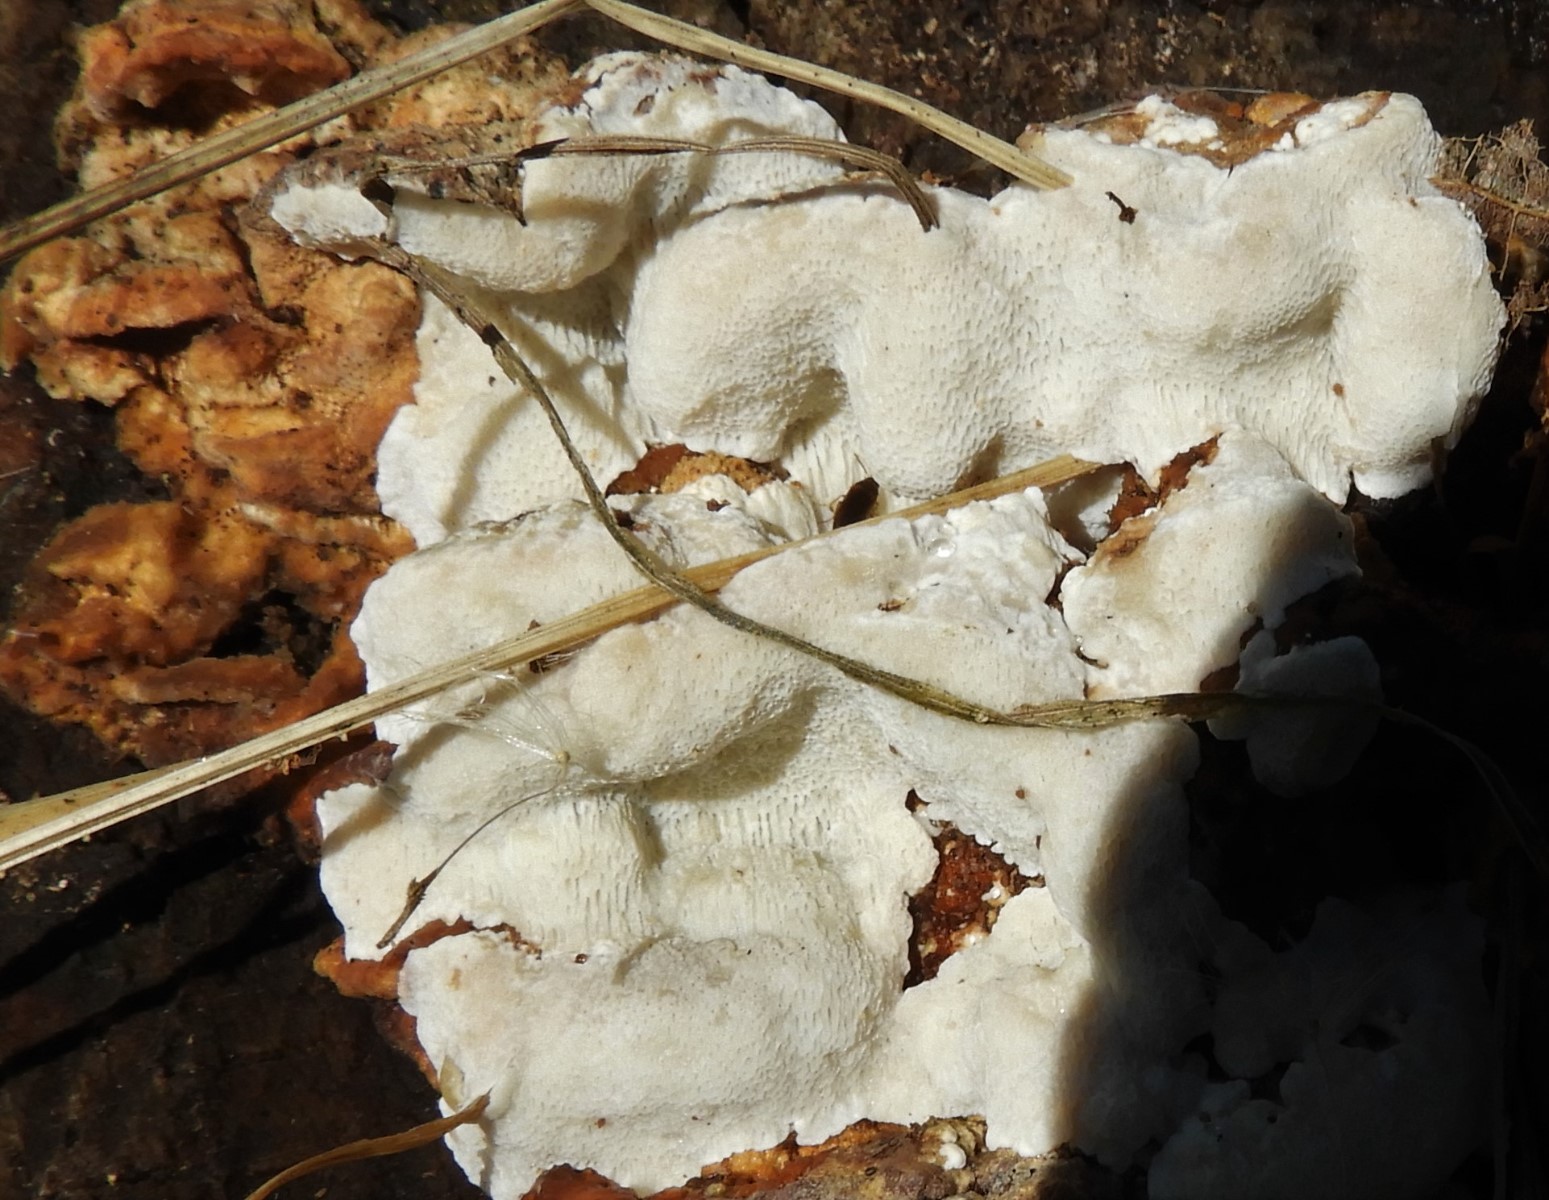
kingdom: Fungi
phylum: Basidiomycota
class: Agaricomycetes
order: Polyporales
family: Fomitopsidaceae
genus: Neoantrodia
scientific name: Neoantrodia serialis
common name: række-sejporesvamp
